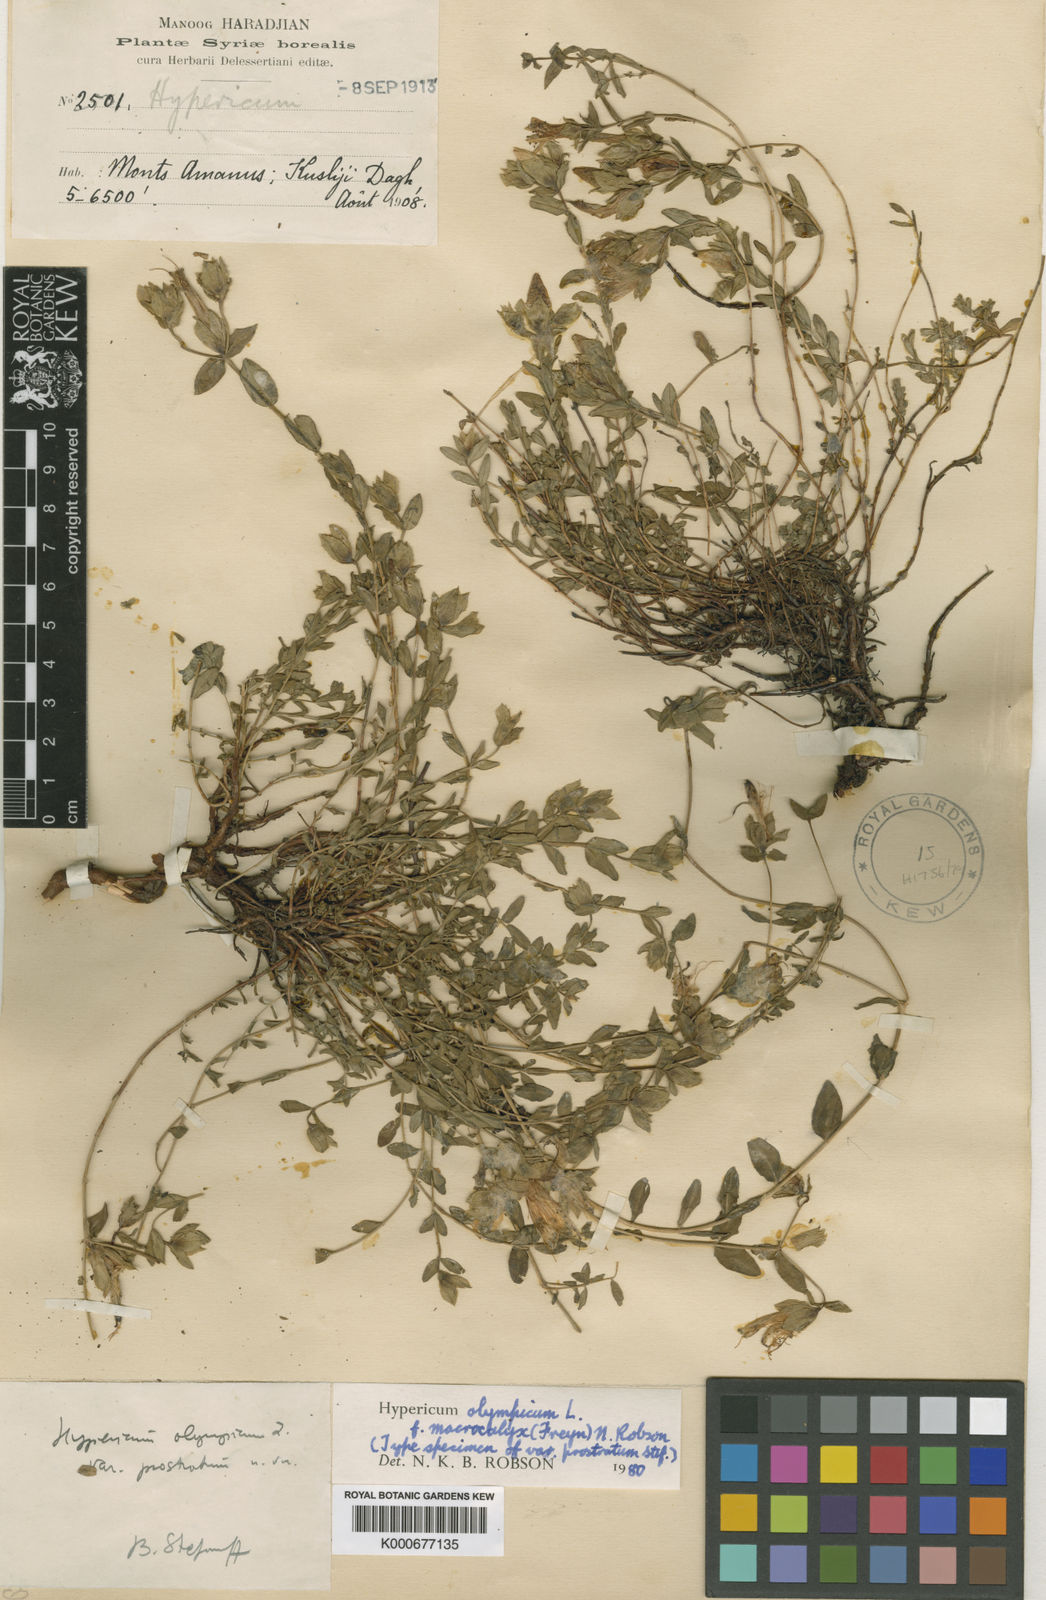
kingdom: Plantae
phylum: Tracheophyta
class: Magnoliopsida
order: Malpighiales
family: Hypericaceae
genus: Hypericum
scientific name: Hypericum olympicum
